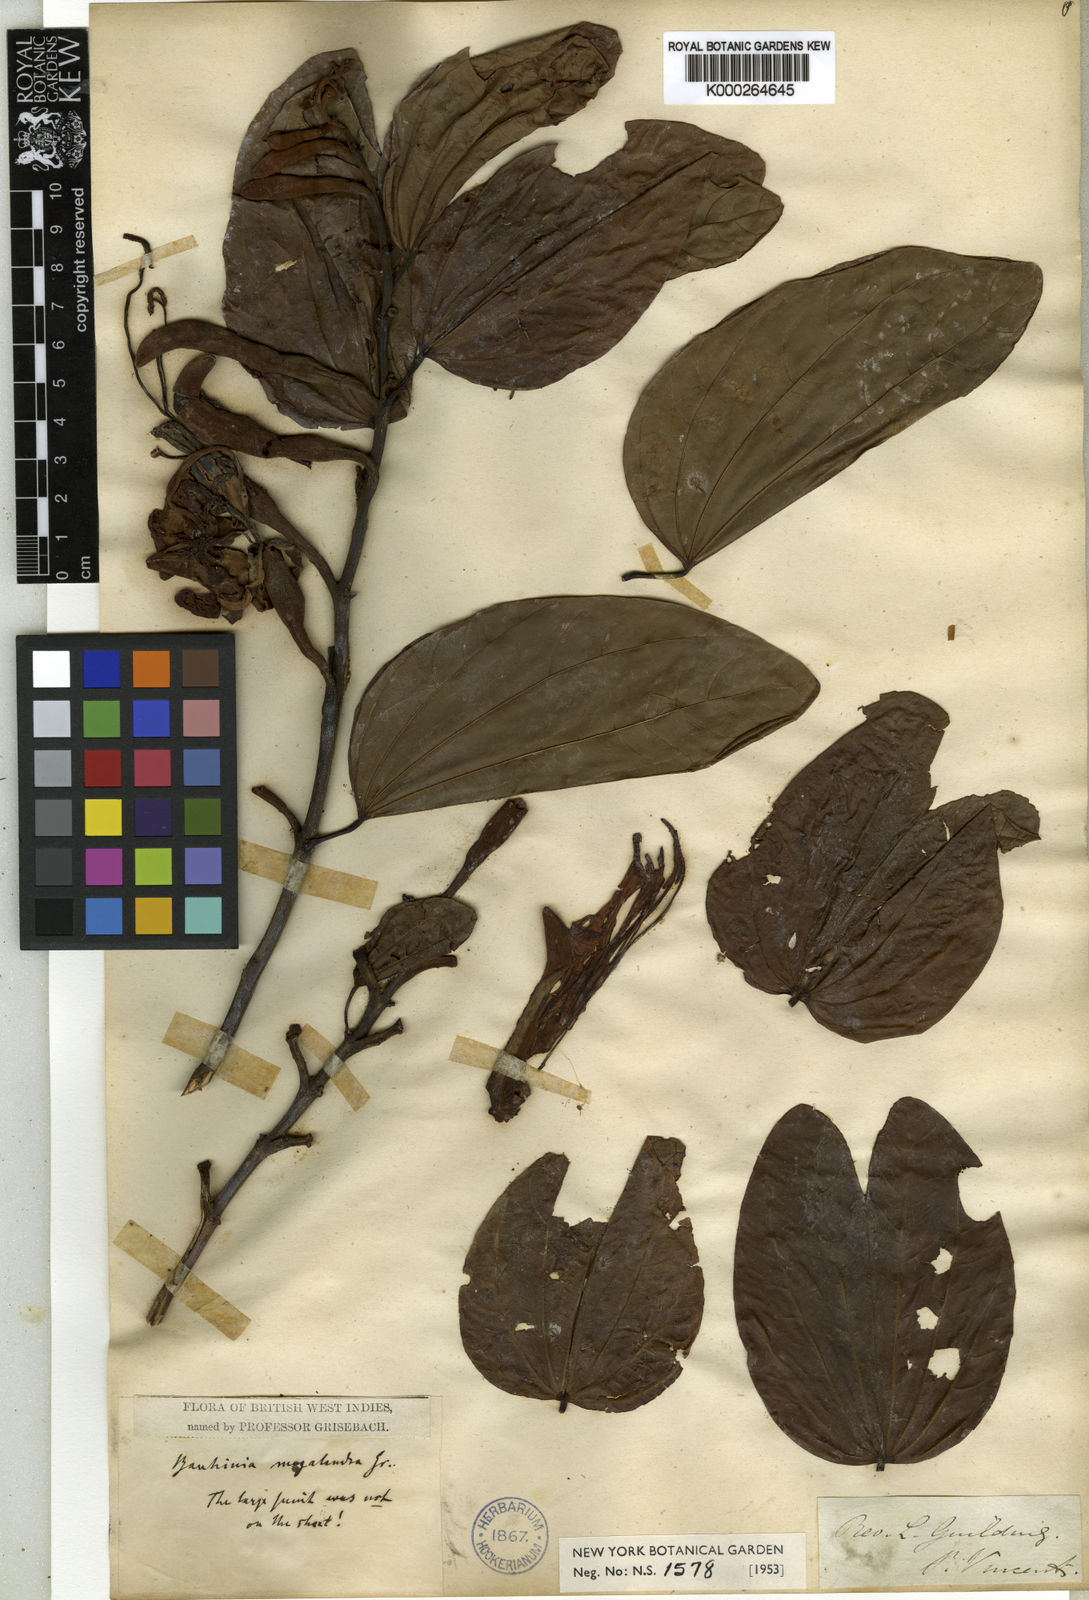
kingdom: Plantae
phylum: Tracheophyta
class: Magnoliopsida
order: Fabales
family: Fabaceae
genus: Bauhinia
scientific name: Bauhinia multinervia
